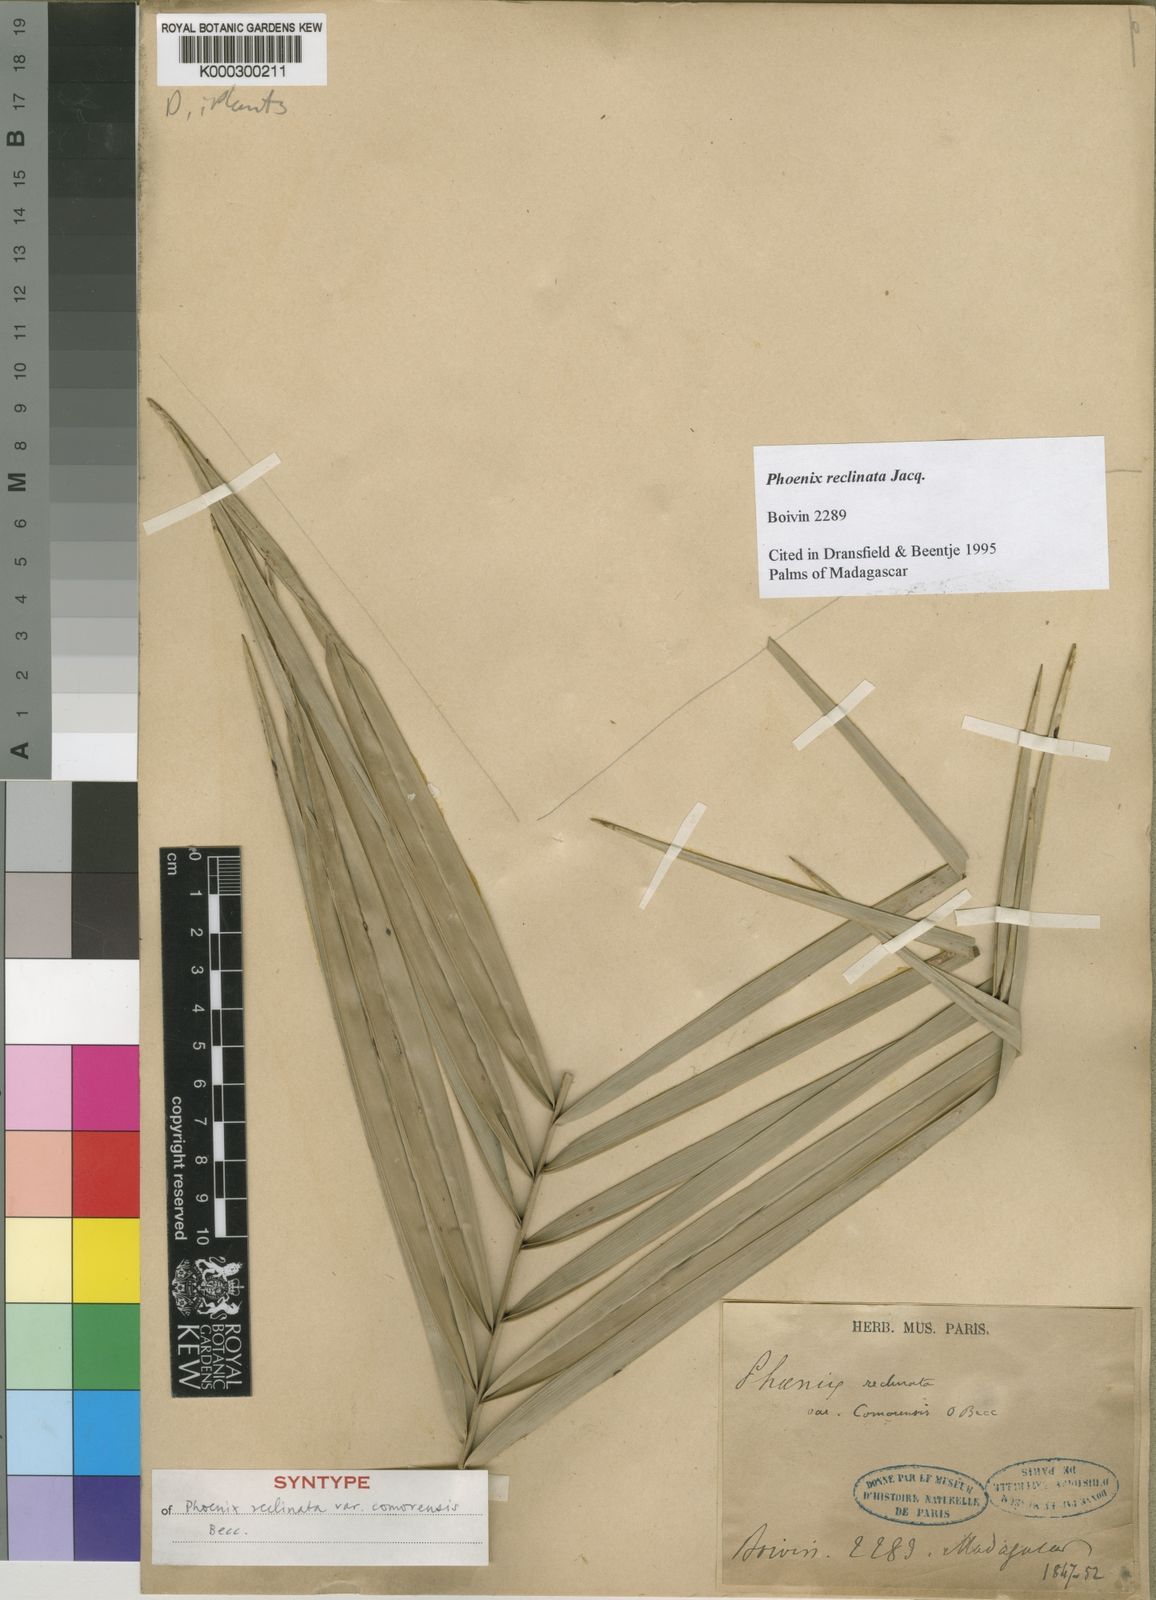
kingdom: Plantae
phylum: Tracheophyta
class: Liliopsida
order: Arecales
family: Arecaceae
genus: Phoenix
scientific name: Phoenix reclinata
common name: Senegal date palm
